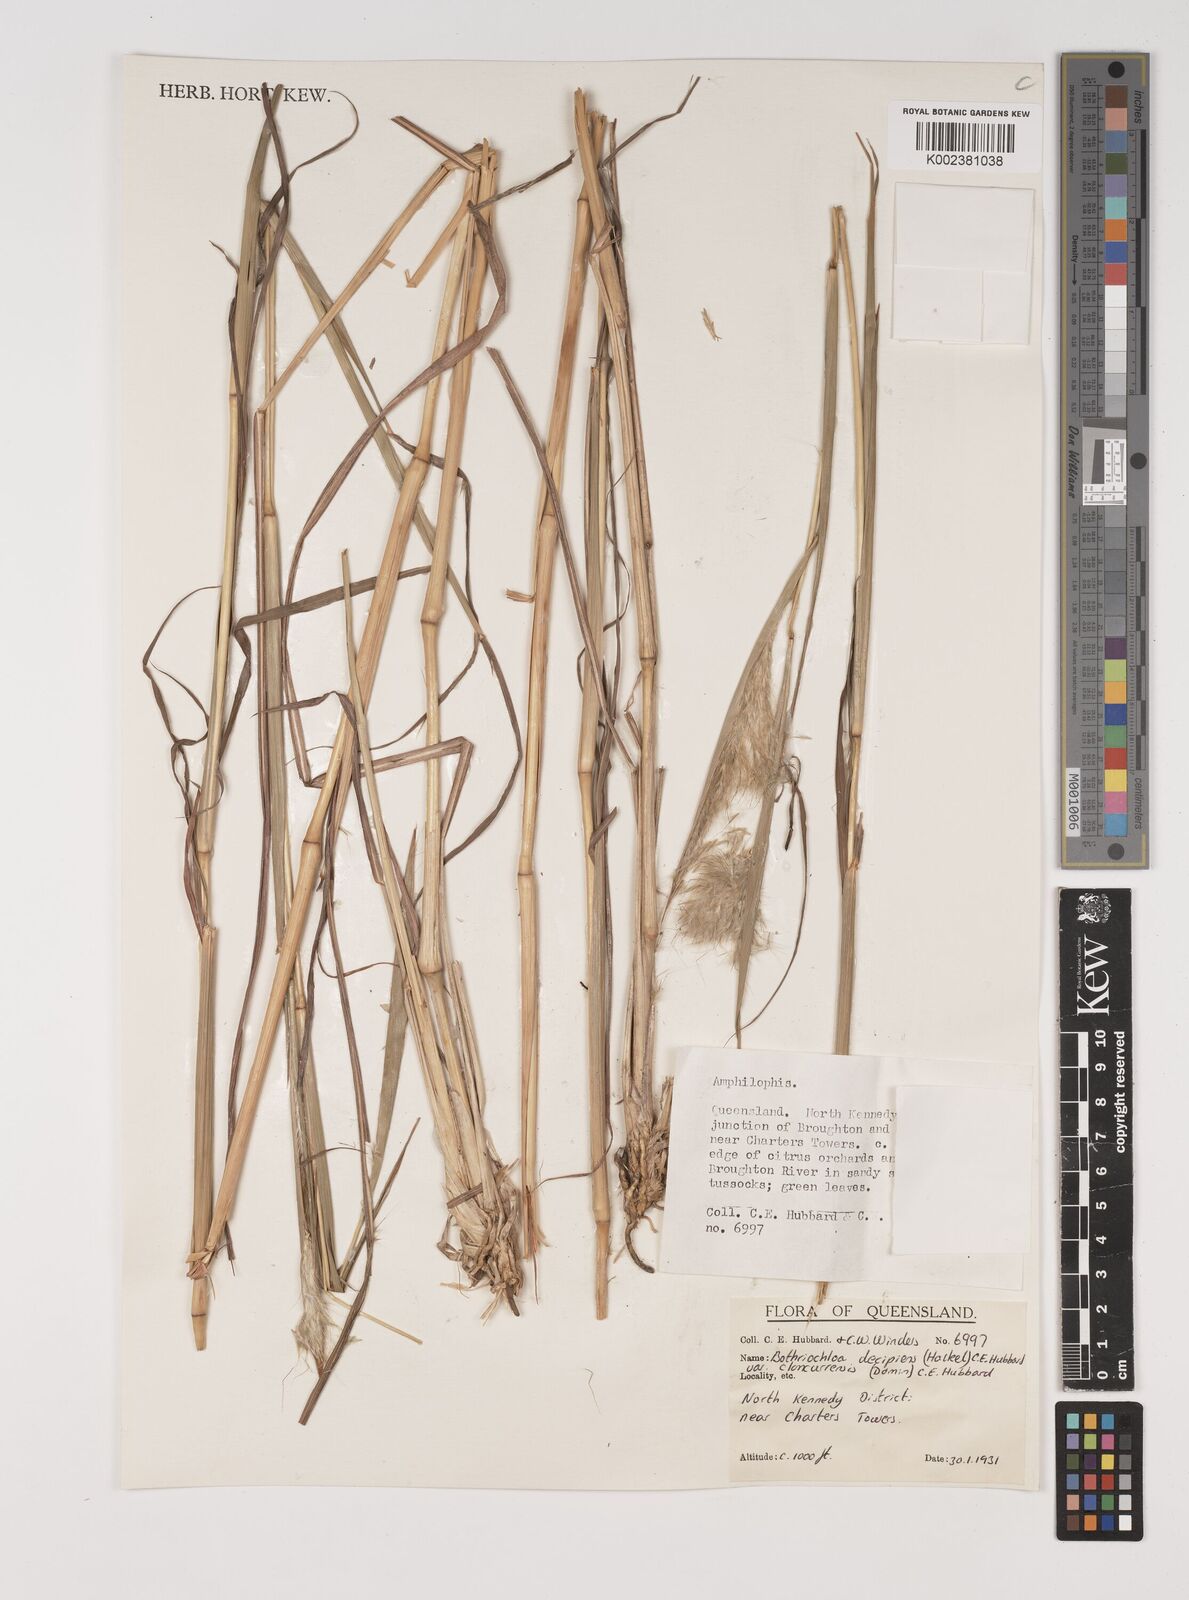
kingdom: Plantae
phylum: Tracheophyta
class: Liliopsida
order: Poales
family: Poaceae
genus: Bothriochloa
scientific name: Bothriochloa decipiens
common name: Pitted-bluegrass
